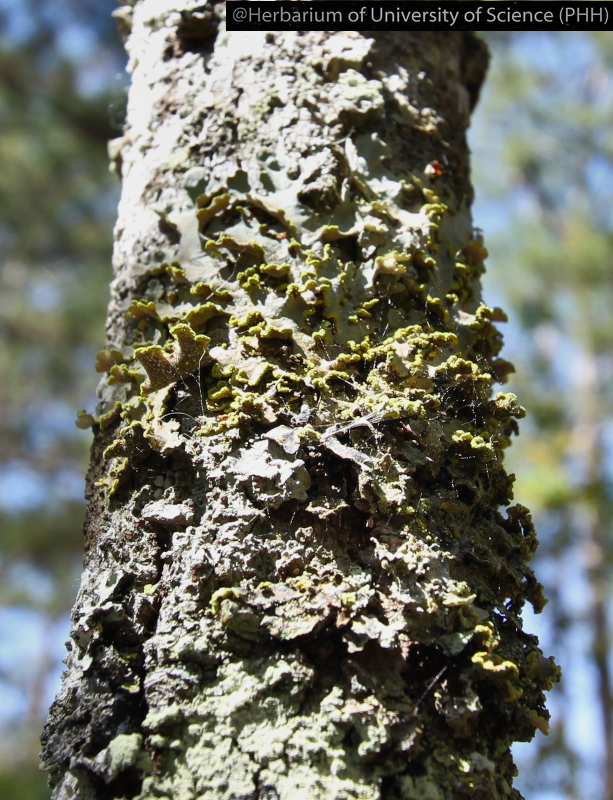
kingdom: Fungi
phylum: Ascomycota
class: Lecanoromycetes
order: Peltigerales
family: Lobariaceae
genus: Pseudocyphellaria
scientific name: Pseudocyphellaria
